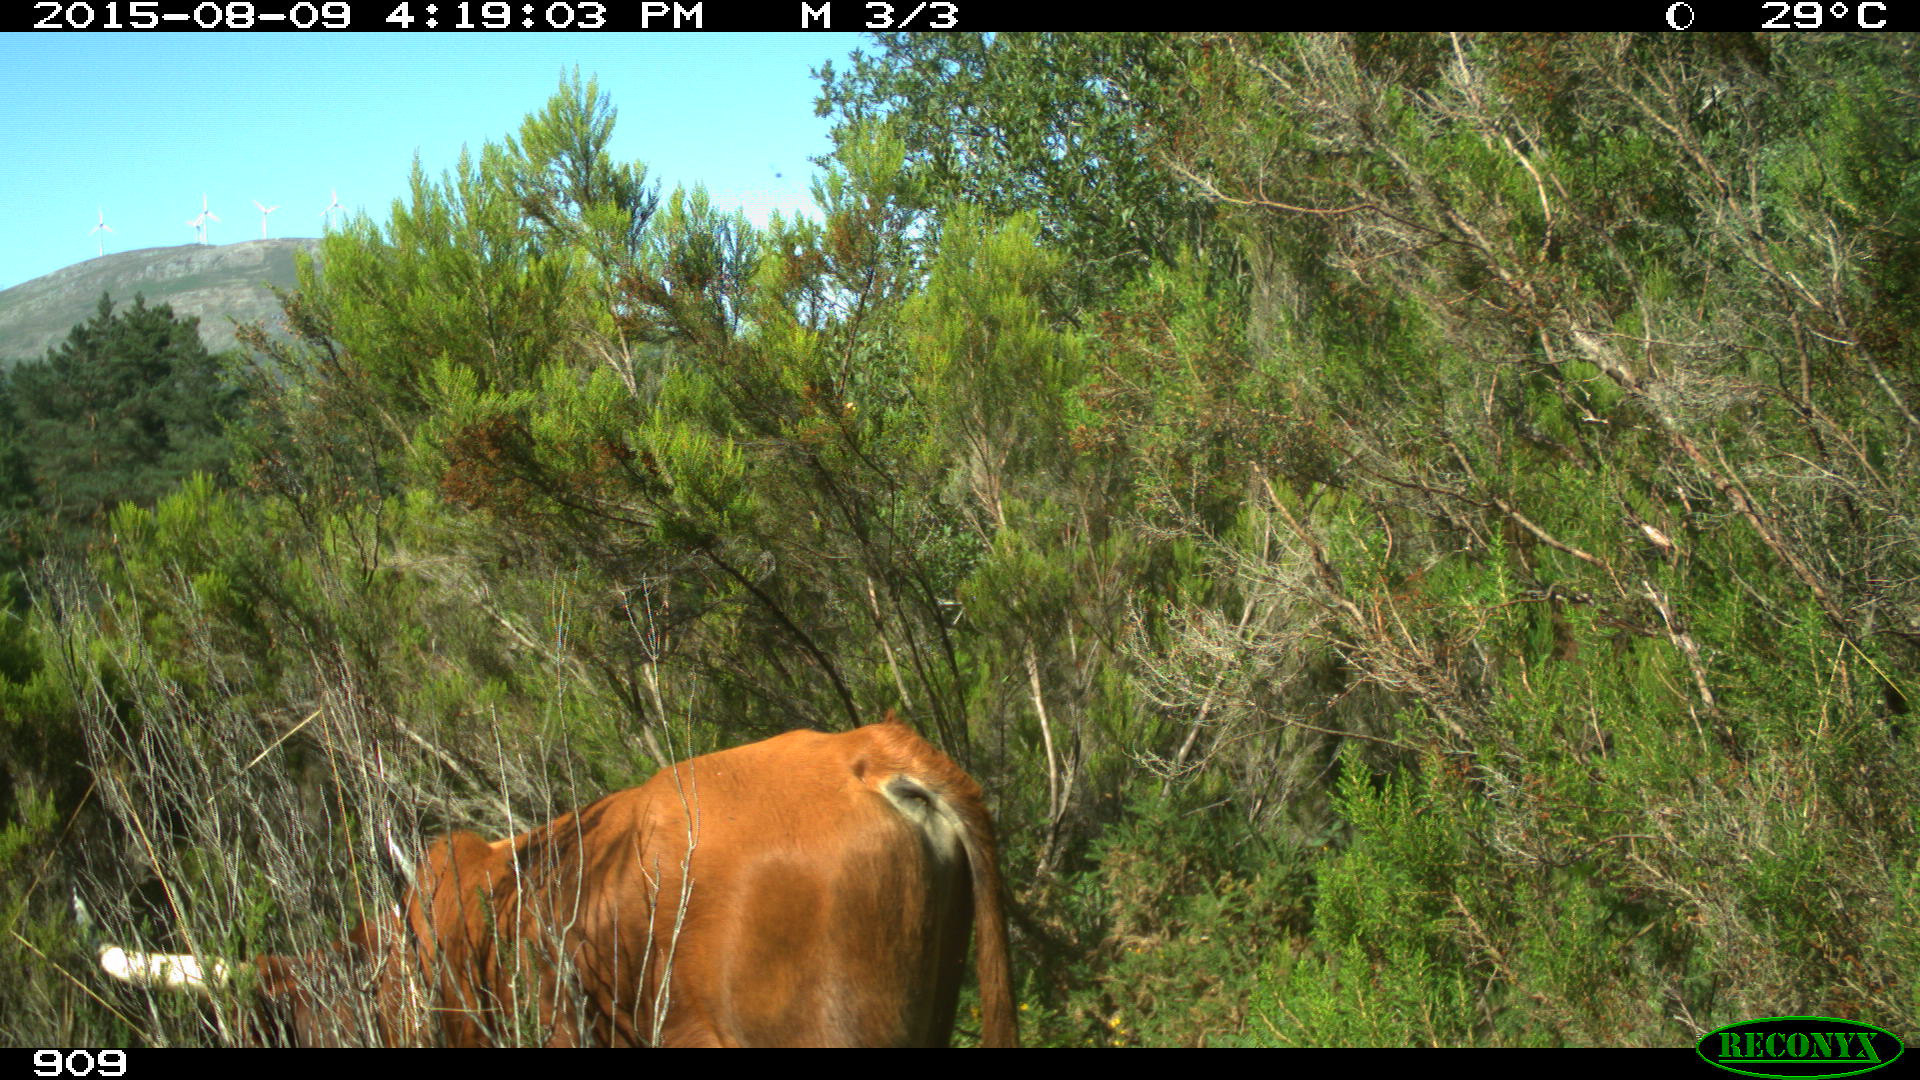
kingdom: Animalia
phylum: Chordata
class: Mammalia
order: Artiodactyla
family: Bovidae
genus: Bos
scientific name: Bos taurus
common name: Domesticated cattle
